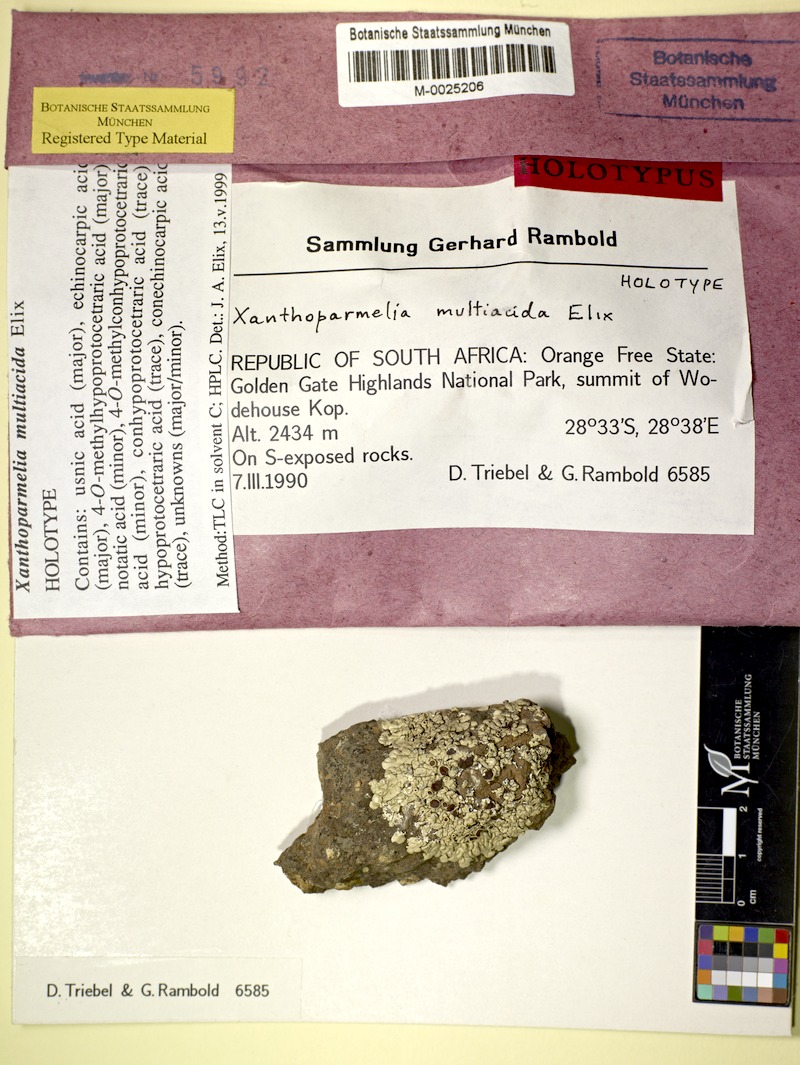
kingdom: Fungi
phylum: Ascomycota
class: Lecanoromycetes
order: Lecanorales
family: Parmeliaceae
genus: Xanthoparmelia
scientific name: Xanthoparmelia
